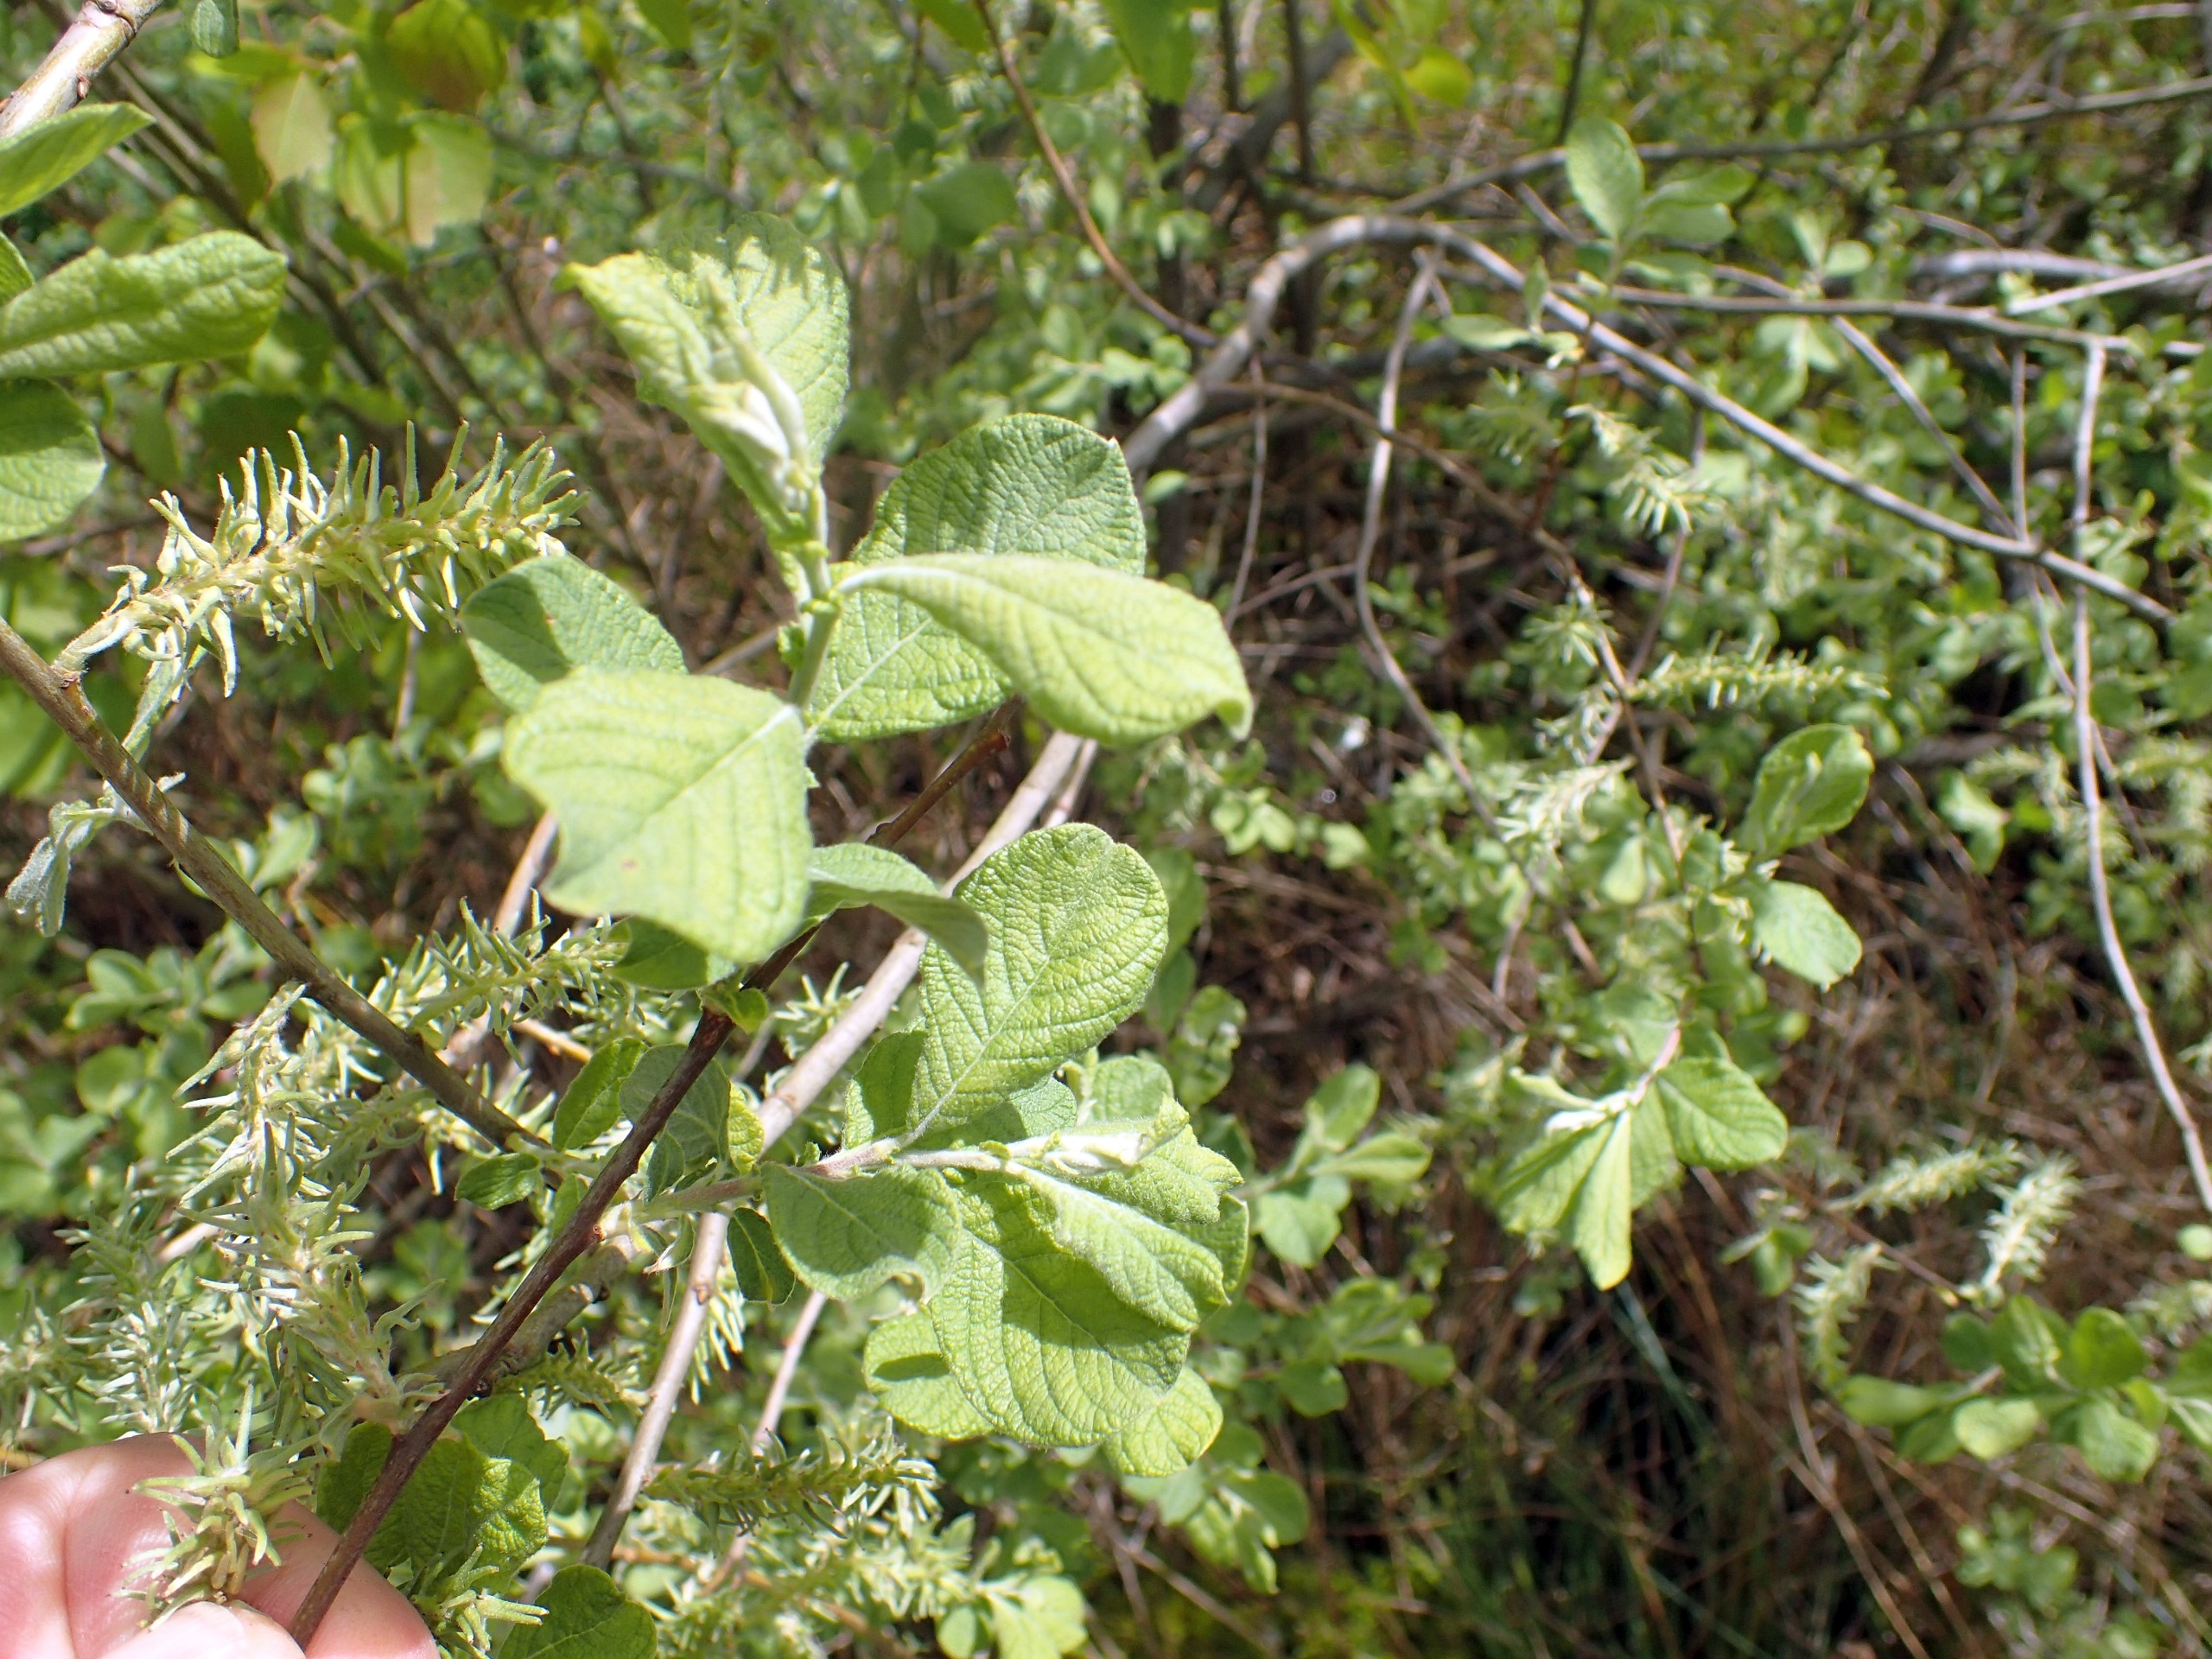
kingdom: Plantae
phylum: Tracheophyta
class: Magnoliopsida
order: Malpighiales
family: Salicaceae
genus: Salix
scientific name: Salix aurita
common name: Øret pil
